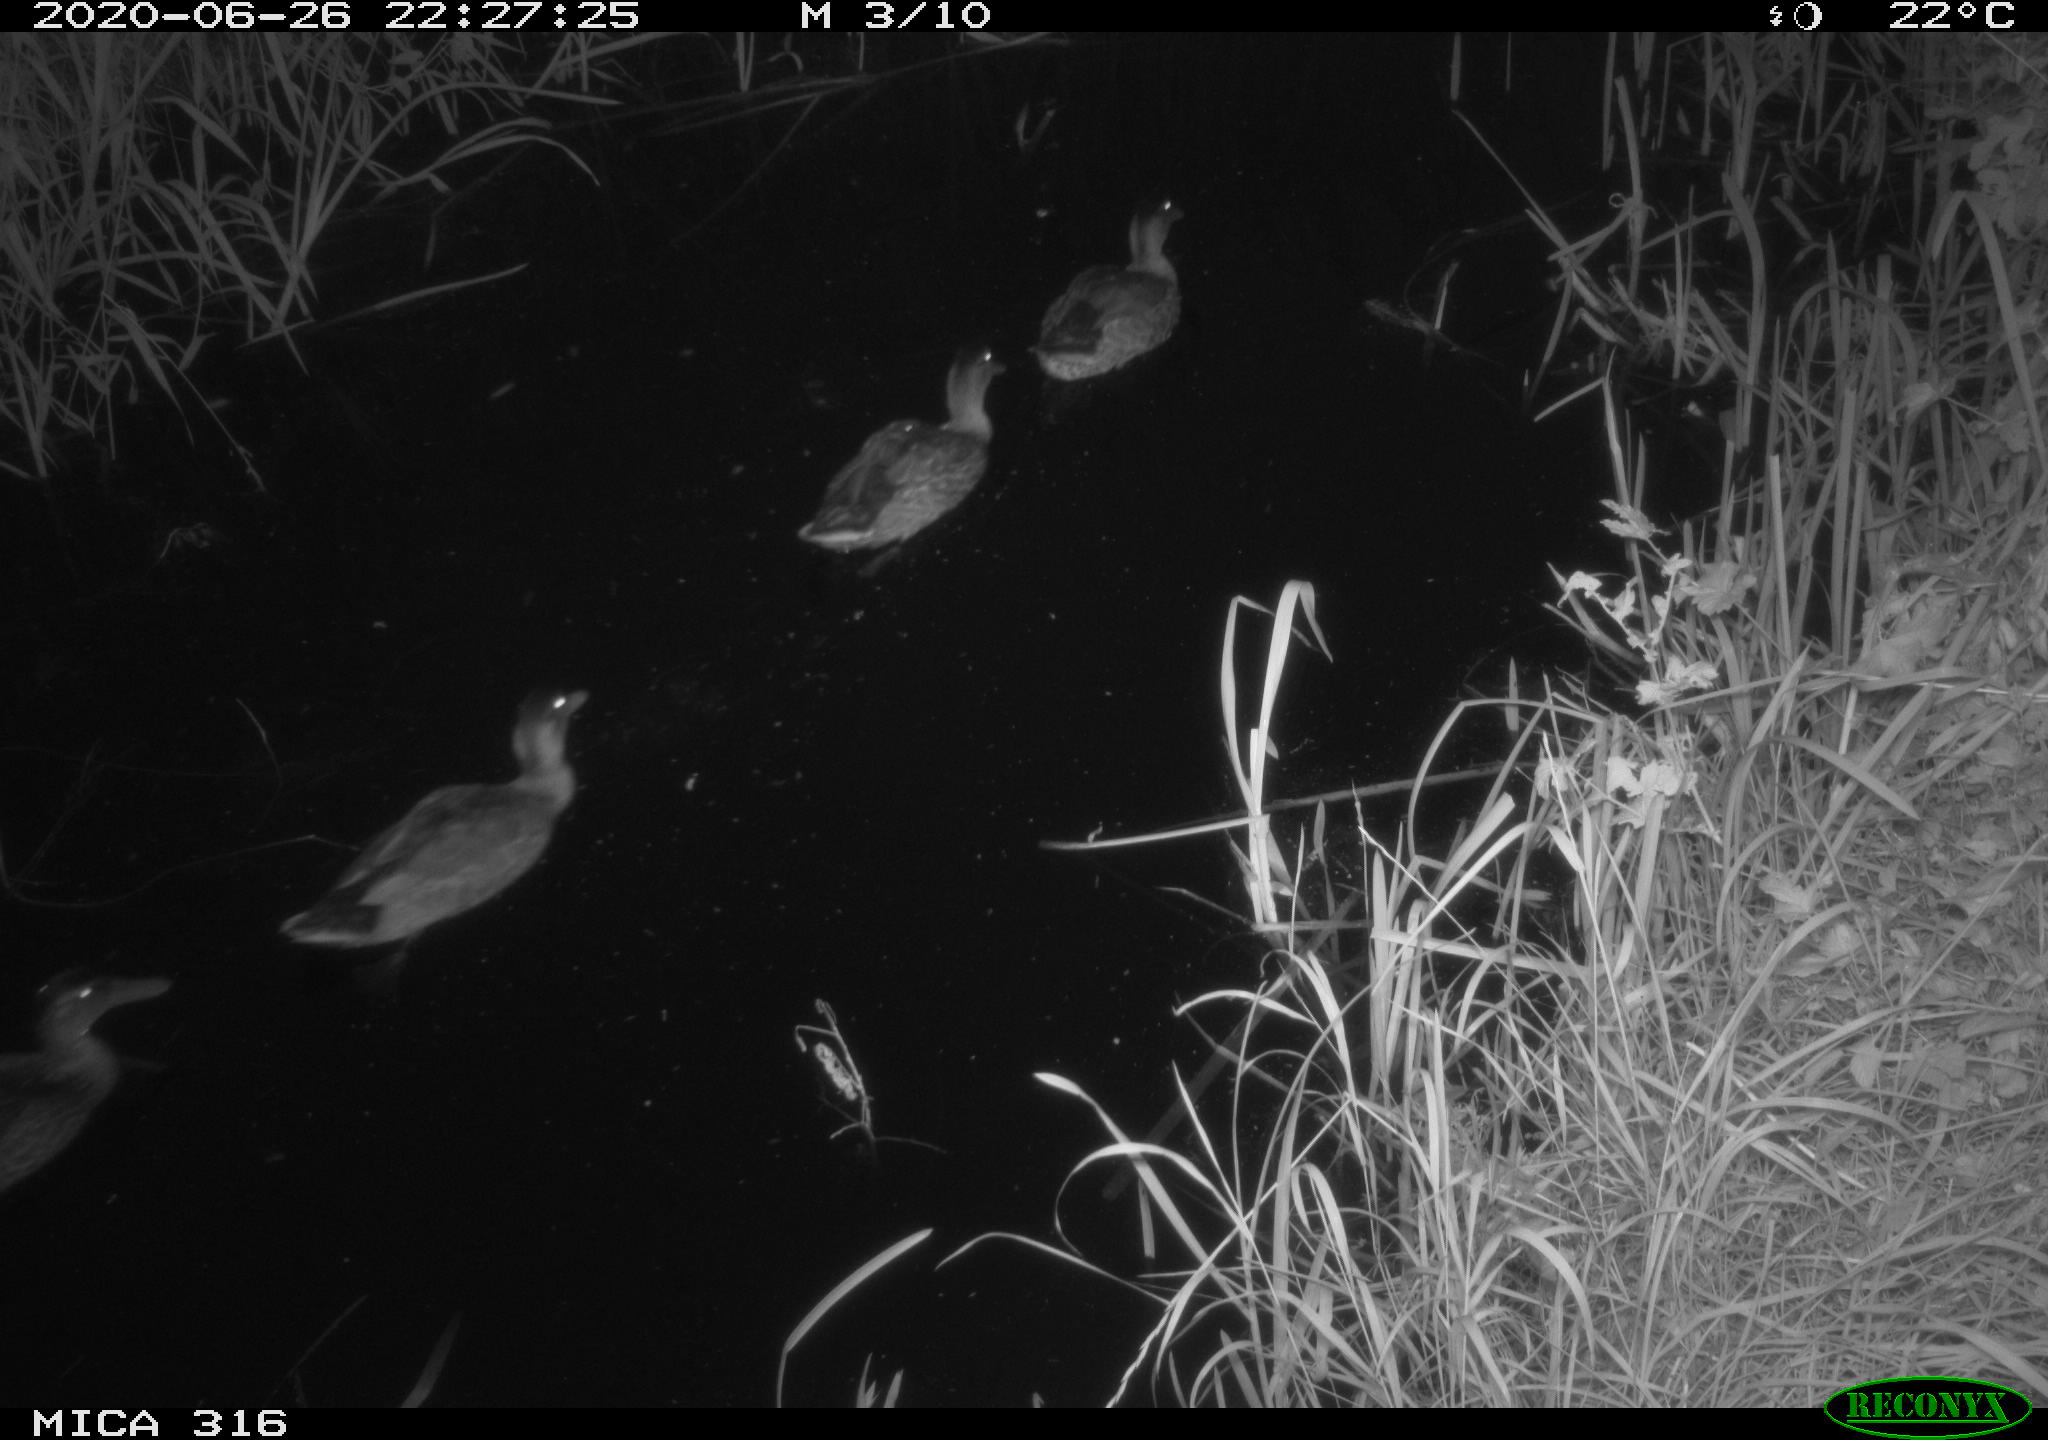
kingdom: Animalia
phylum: Chordata
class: Aves
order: Anseriformes
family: Anatidae
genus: Anas
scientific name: Anas platyrhynchos
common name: Mallard
